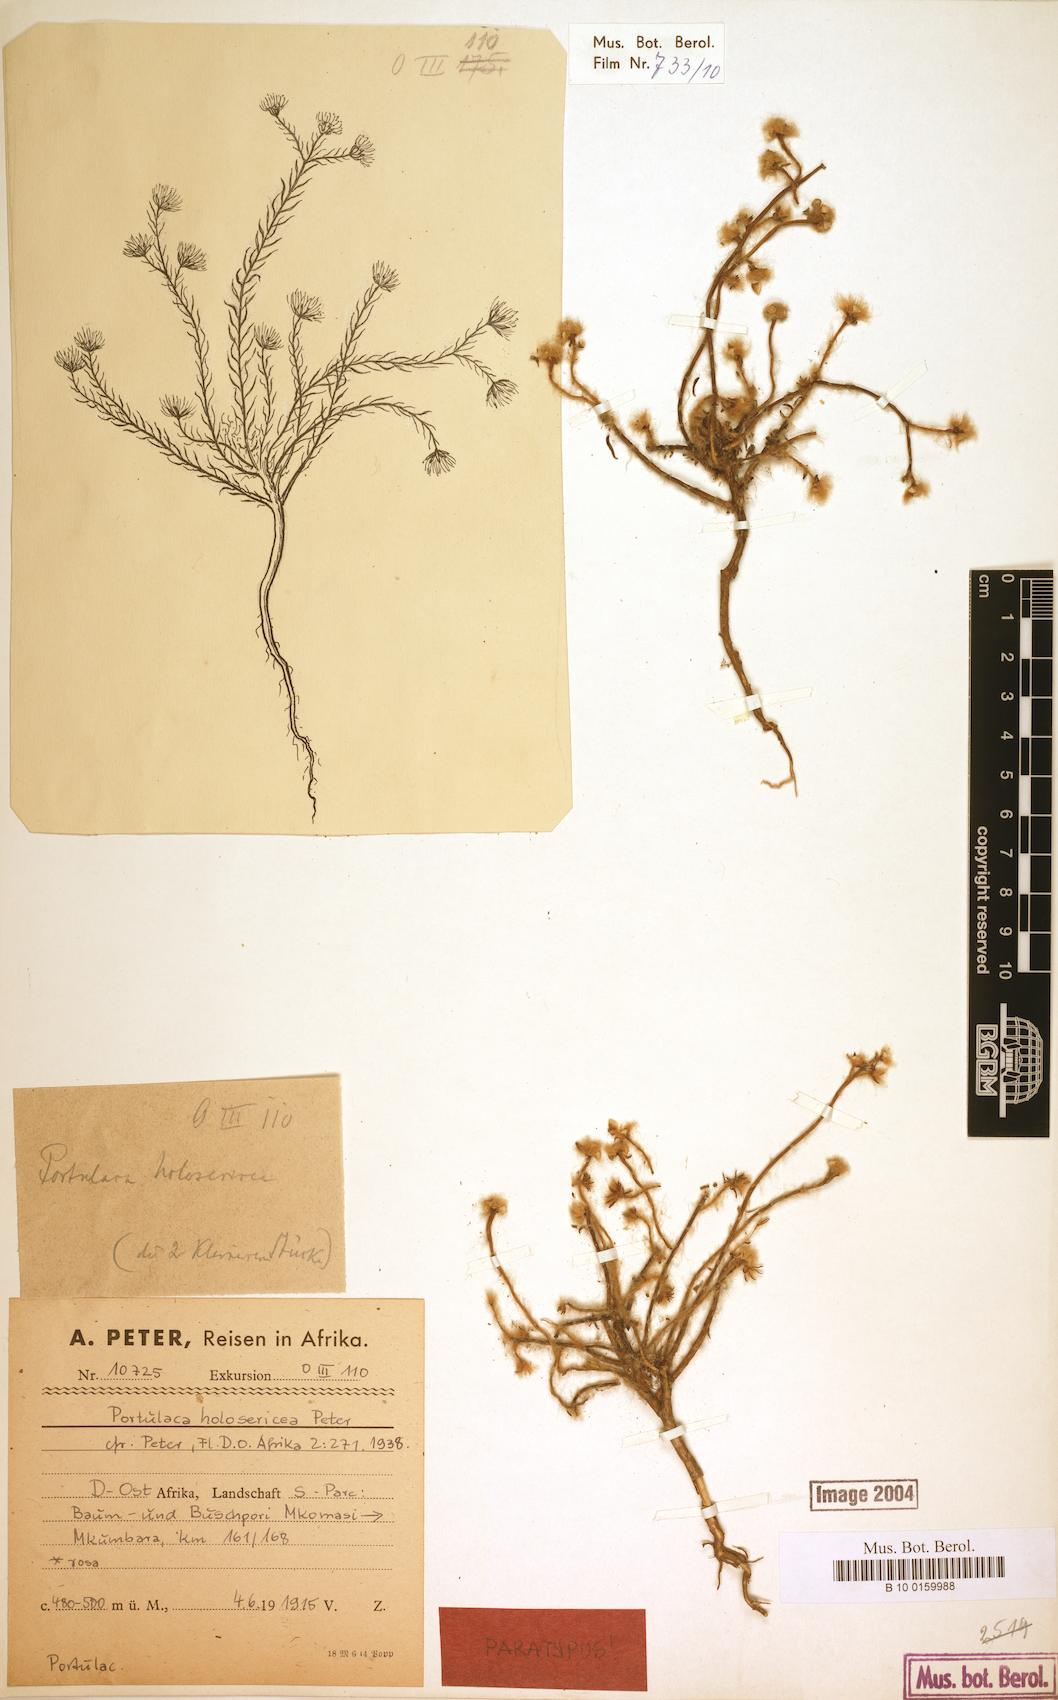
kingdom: Plantae
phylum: Tracheophyta
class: Magnoliopsida
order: Caryophyllales
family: Portulacaceae
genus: Portulaca
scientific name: Portulaca kermesina
